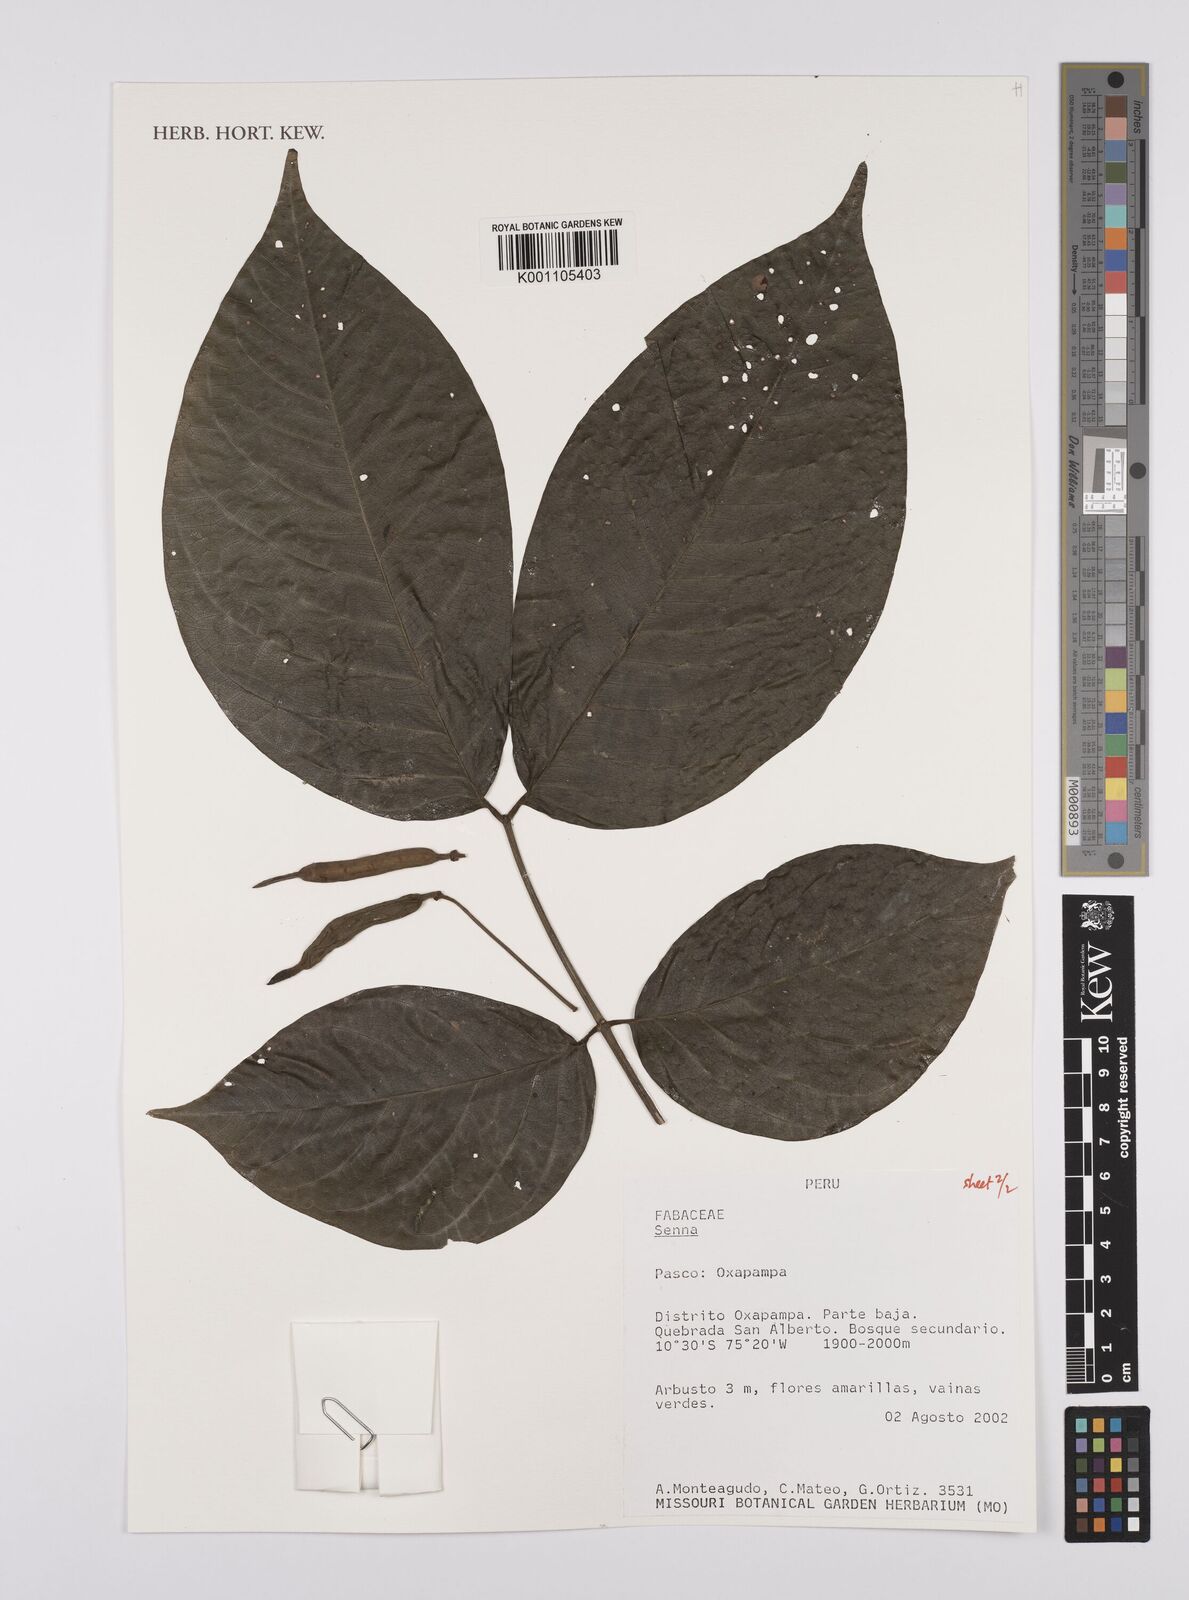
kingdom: Plantae
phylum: Tracheophyta
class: Magnoliopsida
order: Fabales
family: Fabaceae
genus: Senna
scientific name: Senna
